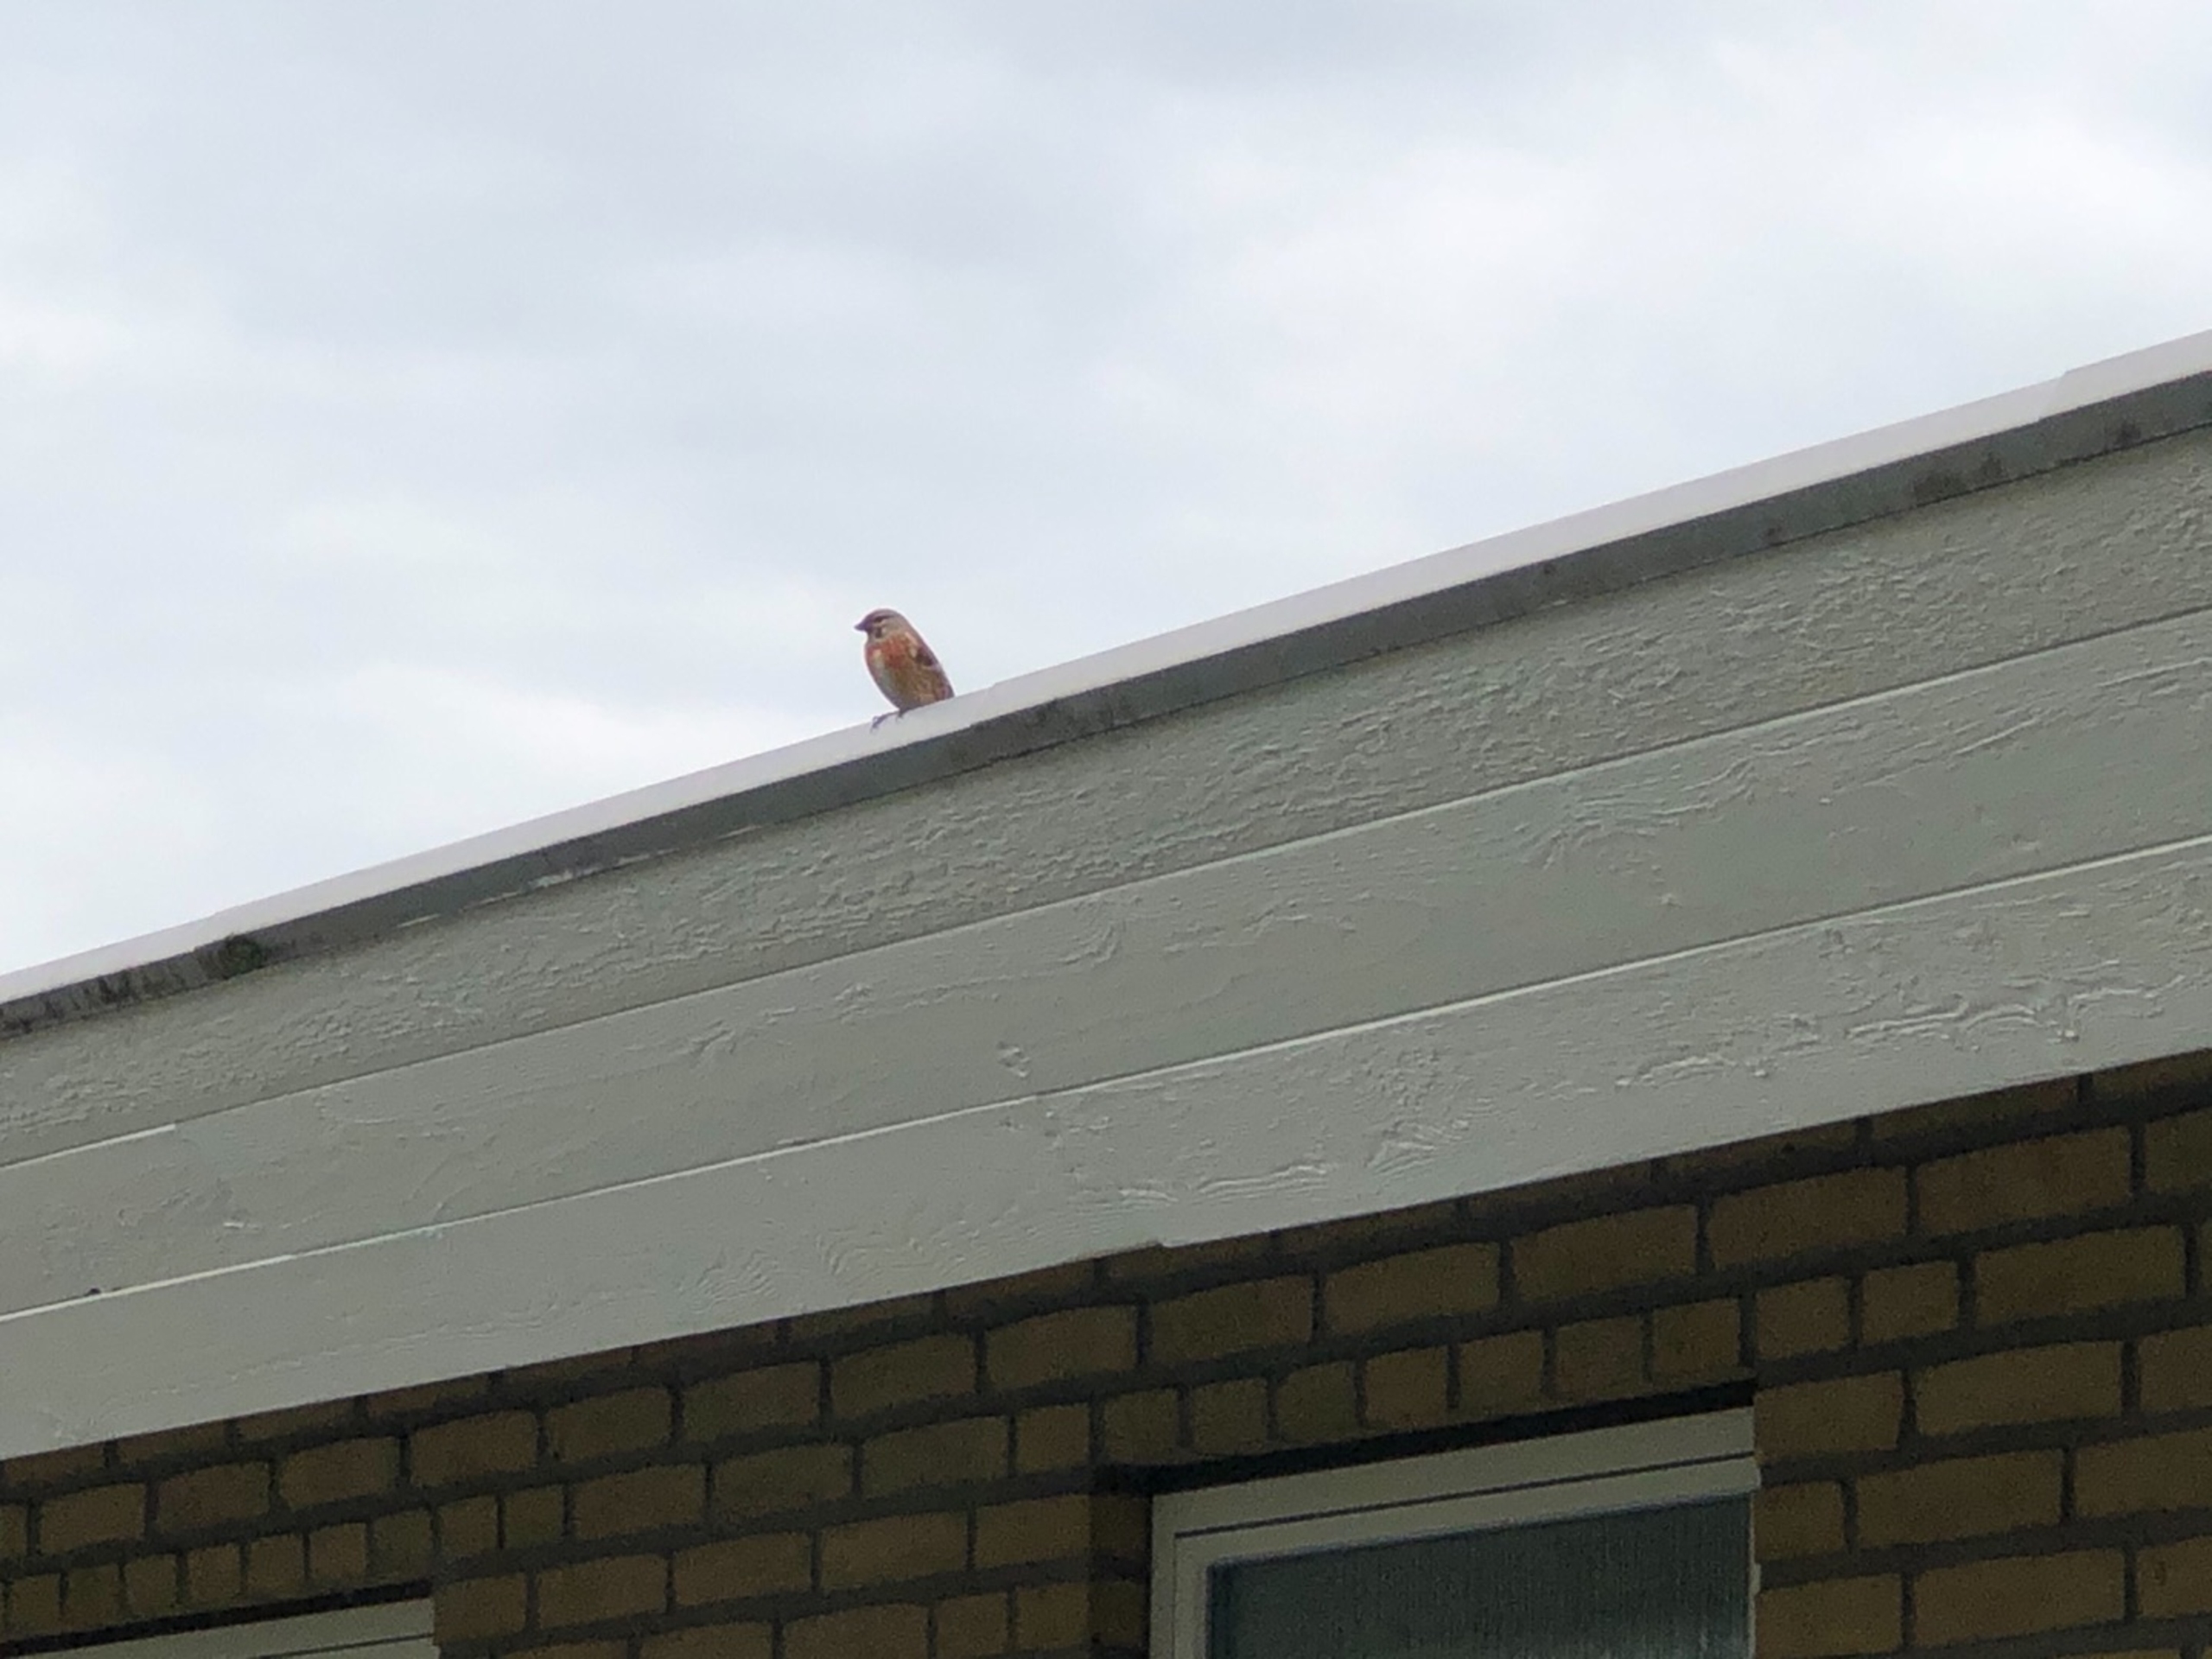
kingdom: Animalia
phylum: Chordata
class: Aves
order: Passeriformes
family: Fringillidae
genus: Linaria
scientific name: Linaria cannabina
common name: Tornirisk
